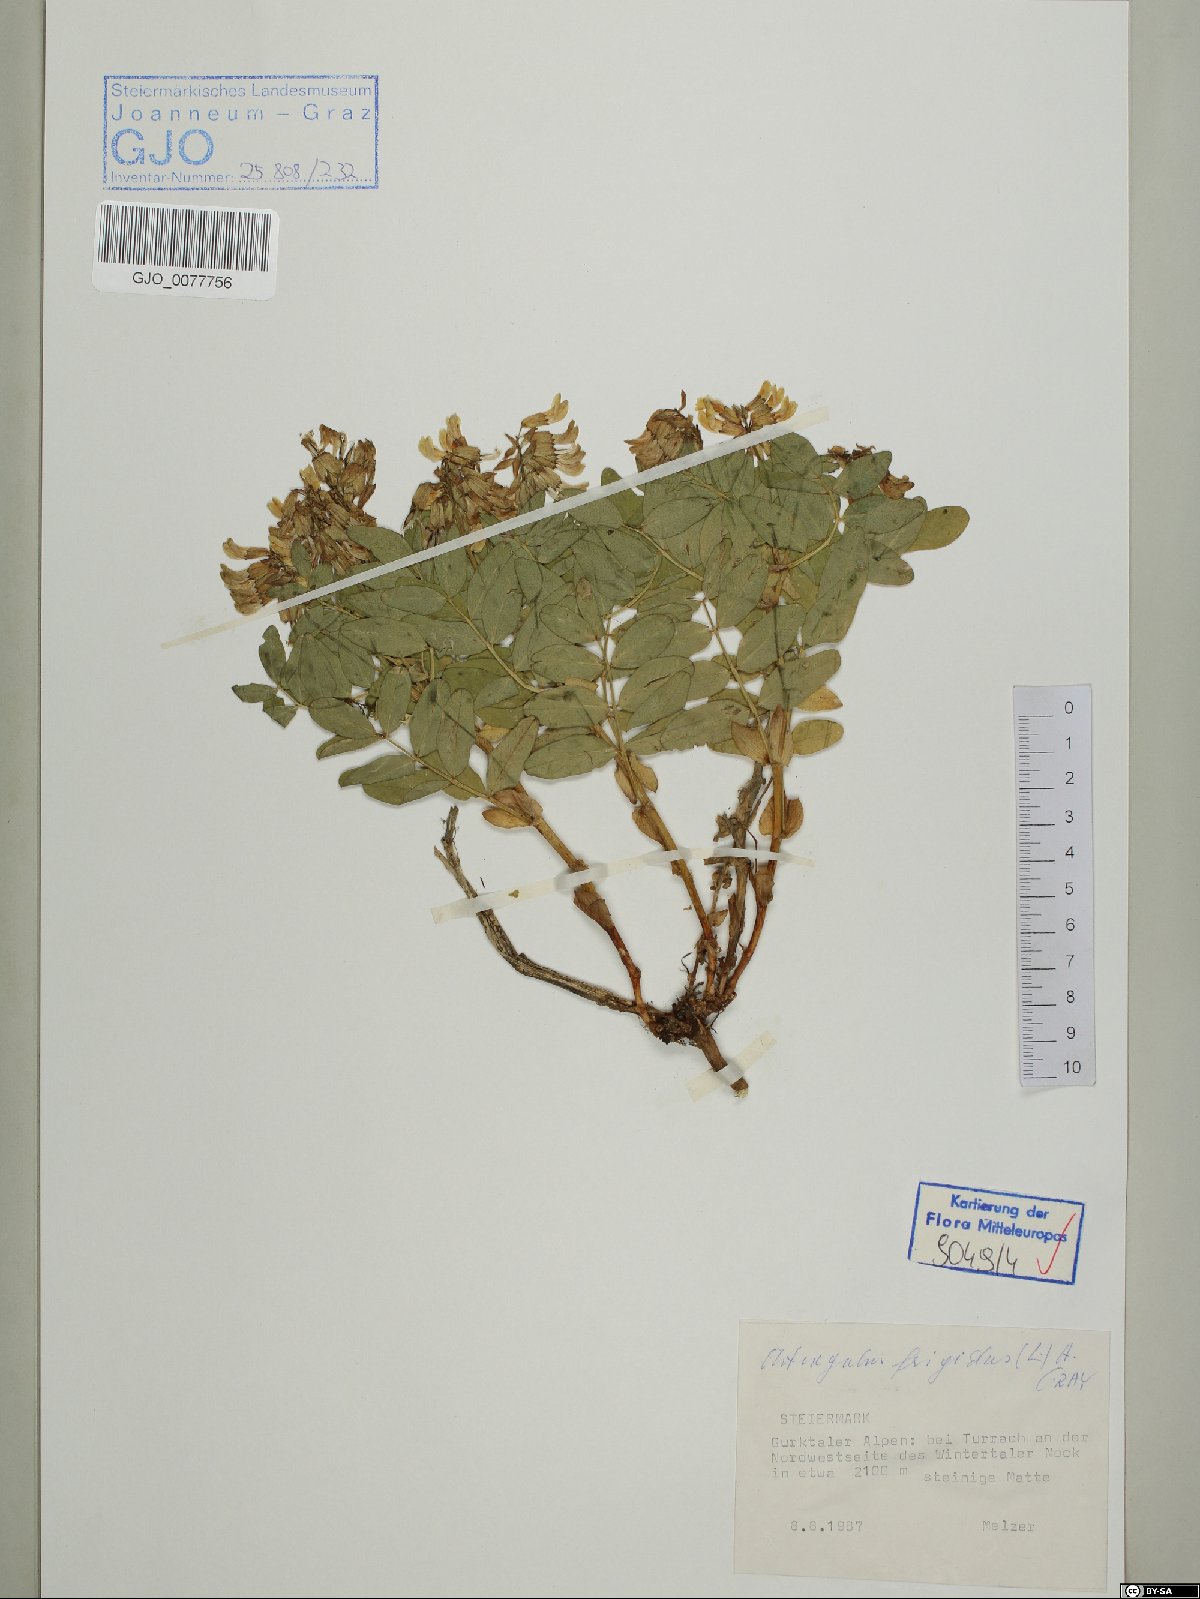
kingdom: Plantae
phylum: Tracheophyta
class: Magnoliopsida
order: Fabales
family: Fabaceae
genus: Astragalus
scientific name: Astragalus frigidus
